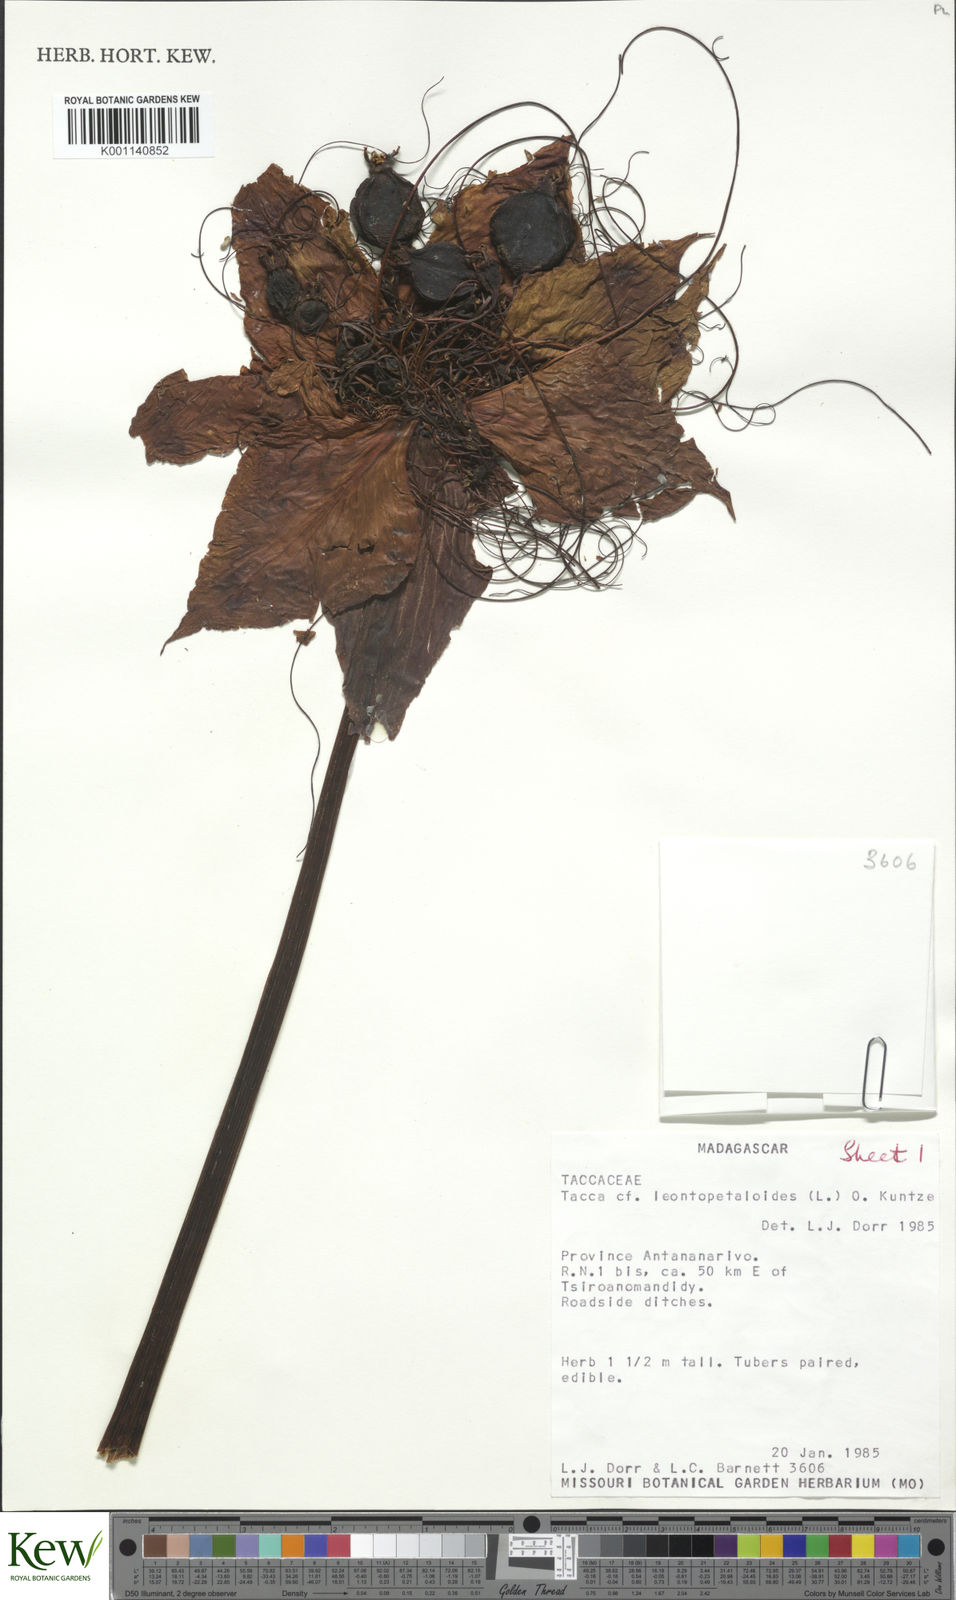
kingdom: Plantae
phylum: Tracheophyta
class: Liliopsida
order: Dioscoreales
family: Dioscoreaceae
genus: Tacca
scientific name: Tacca
